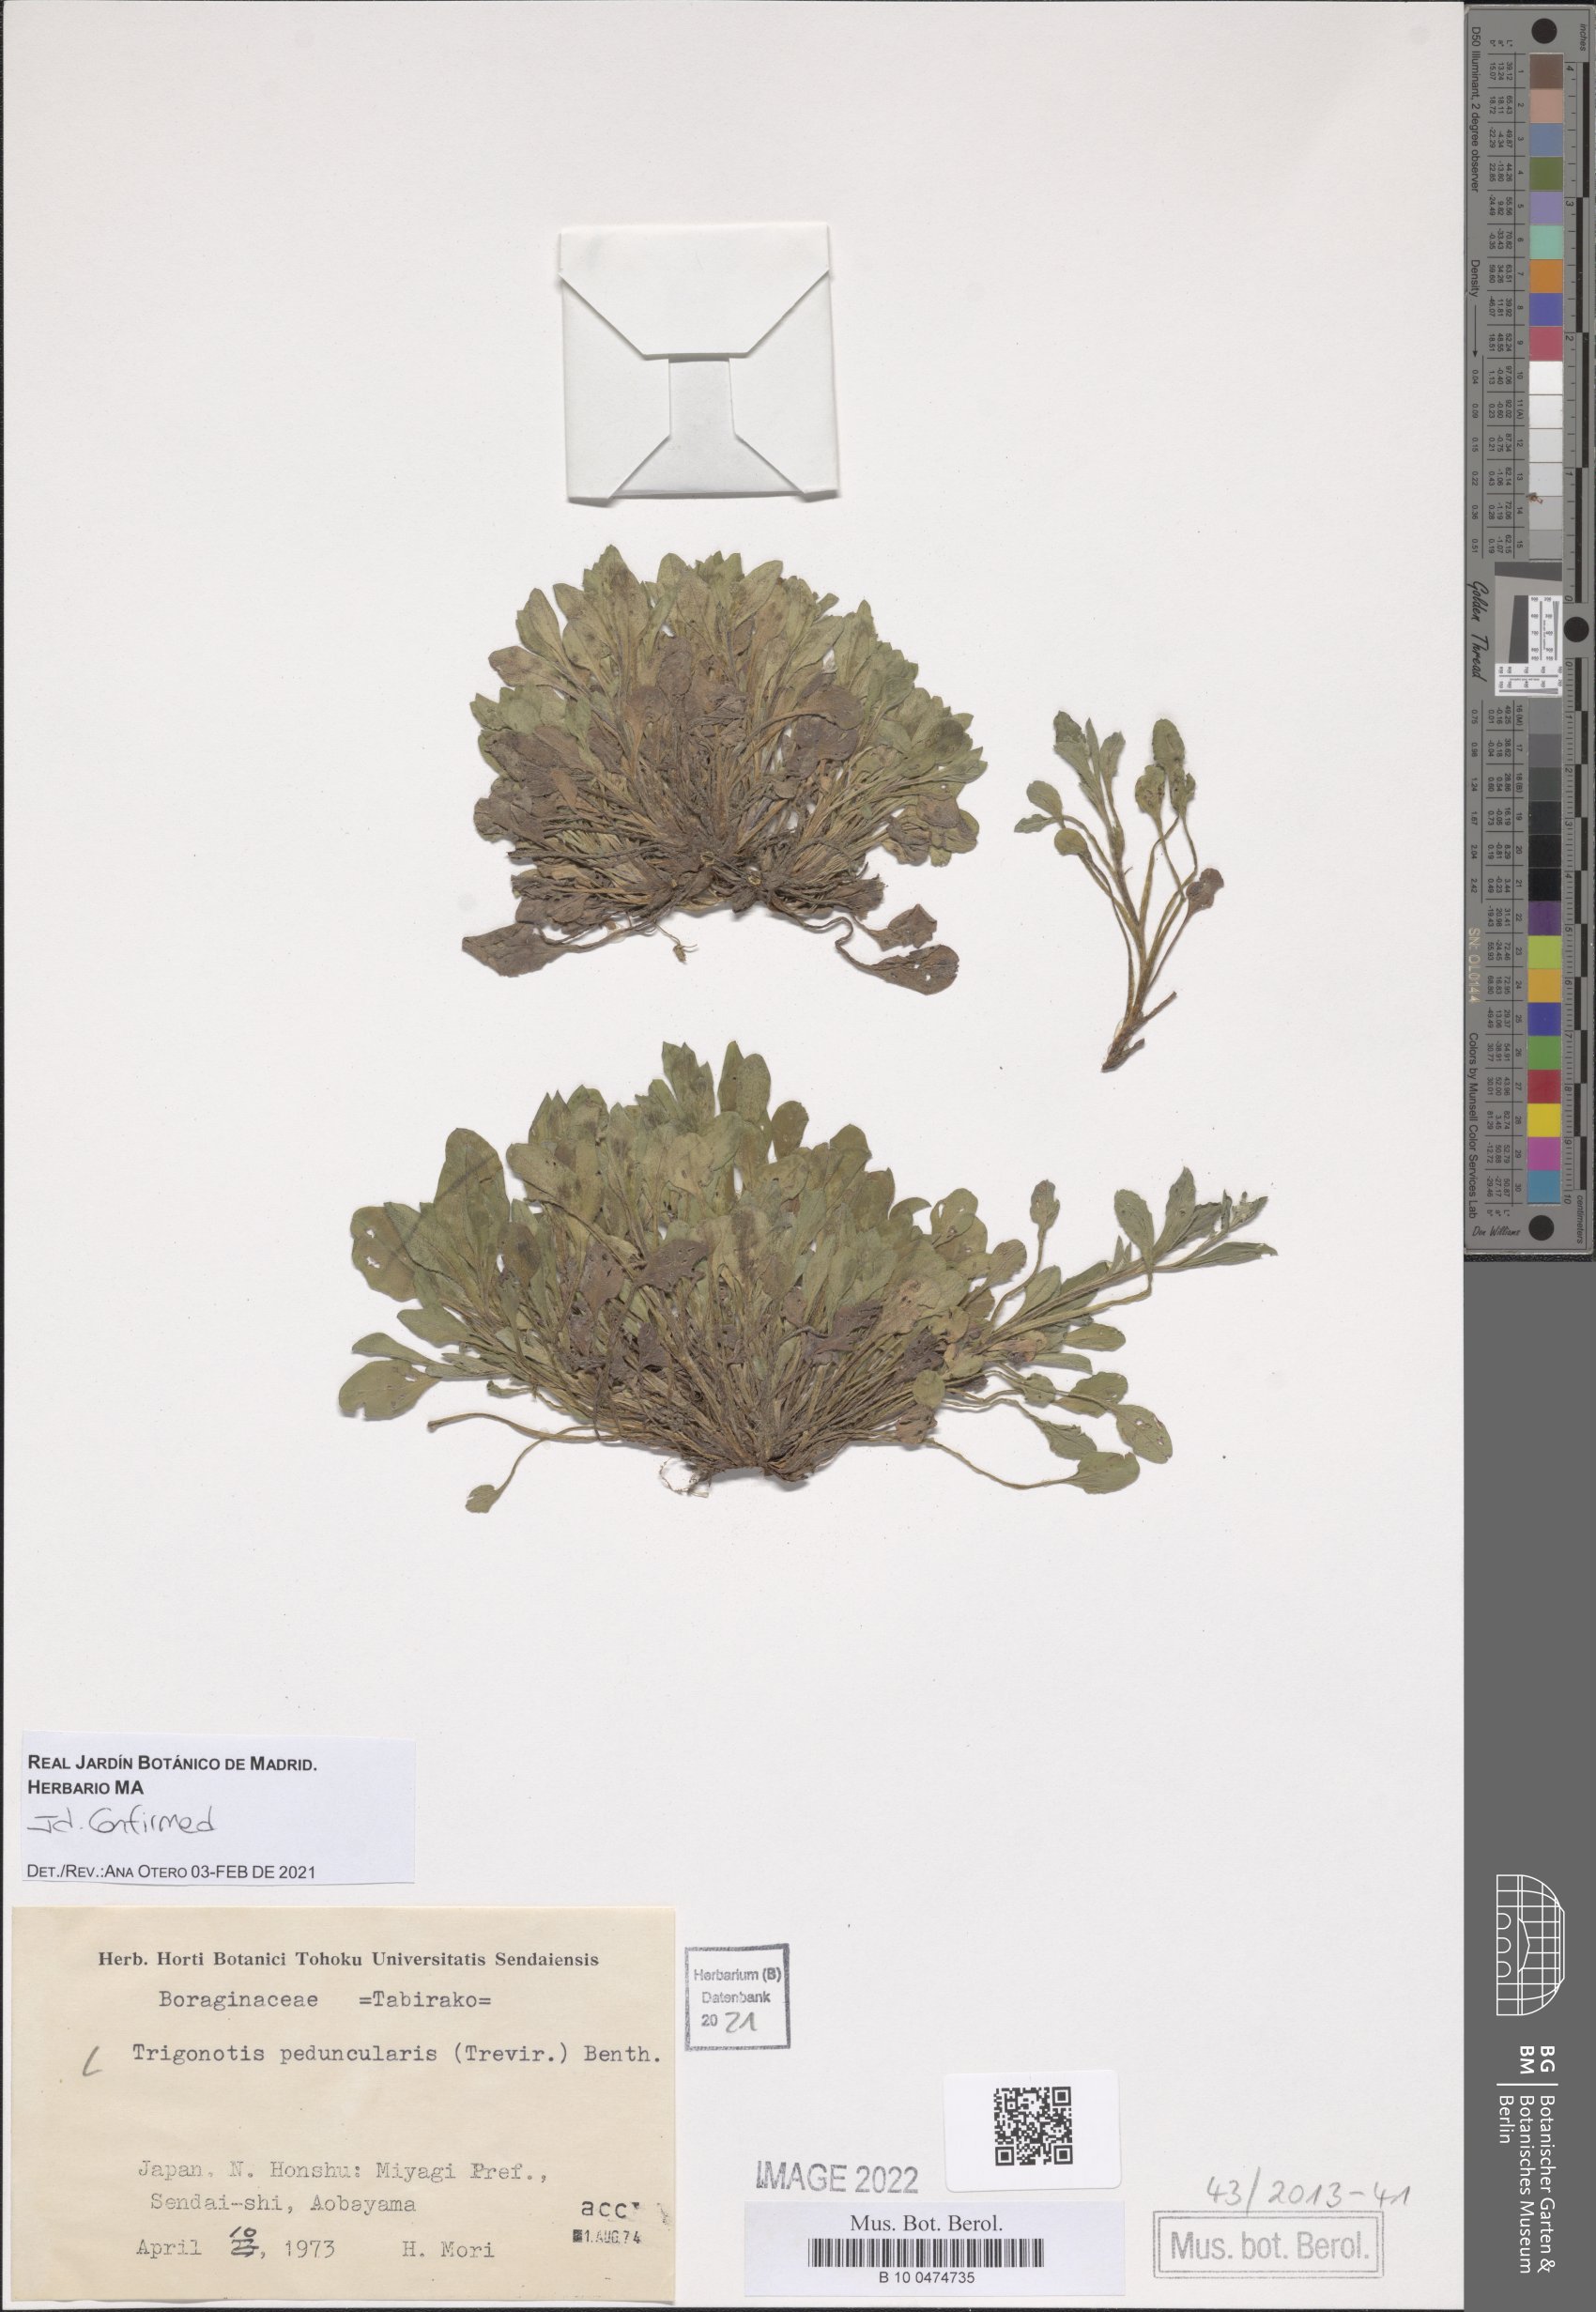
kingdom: Plantae
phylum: Tracheophyta
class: Magnoliopsida
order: Boraginales
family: Boraginaceae
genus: Trigonotis
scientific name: Trigonotis peduncularis
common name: Cucumber herb
